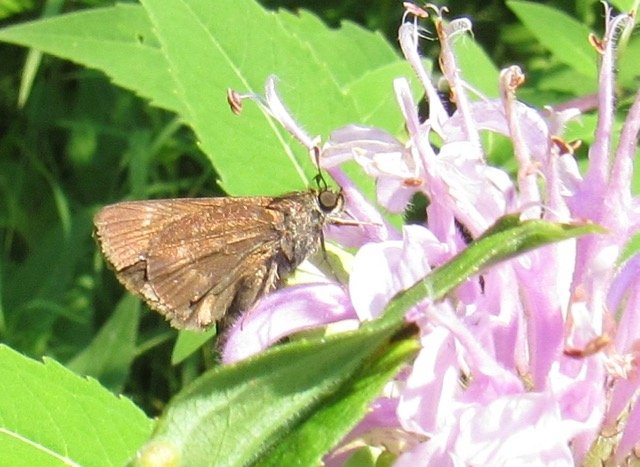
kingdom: Animalia
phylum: Arthropoda
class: Insecta
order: Lepidoptera
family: Hesperiidae
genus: Polites
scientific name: Polites egeremet
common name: Northern Broken-Dash
